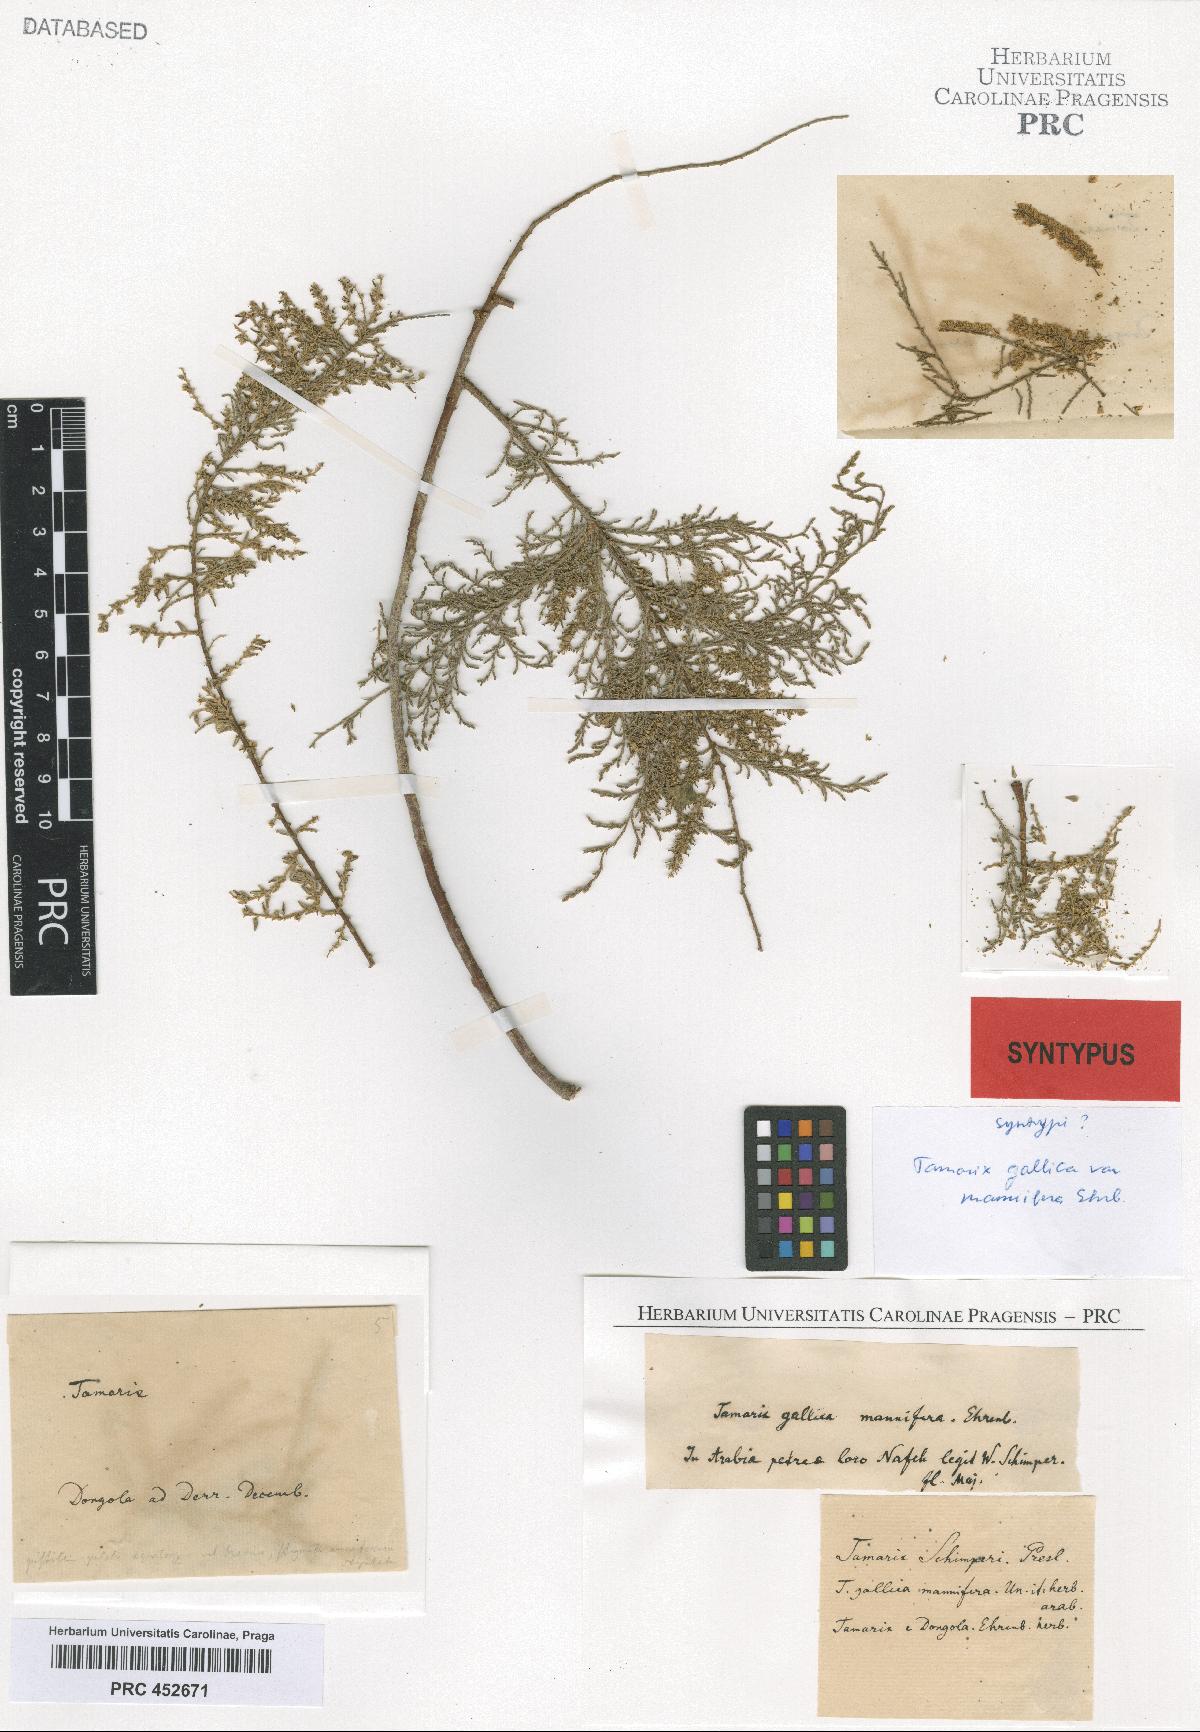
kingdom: Plantae
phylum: Tracheophyta
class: Magnoliopsida
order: Caryophyllales
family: Tamaricaceae
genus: Tamarix
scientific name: Tamarix gallica
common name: Tamarisk
